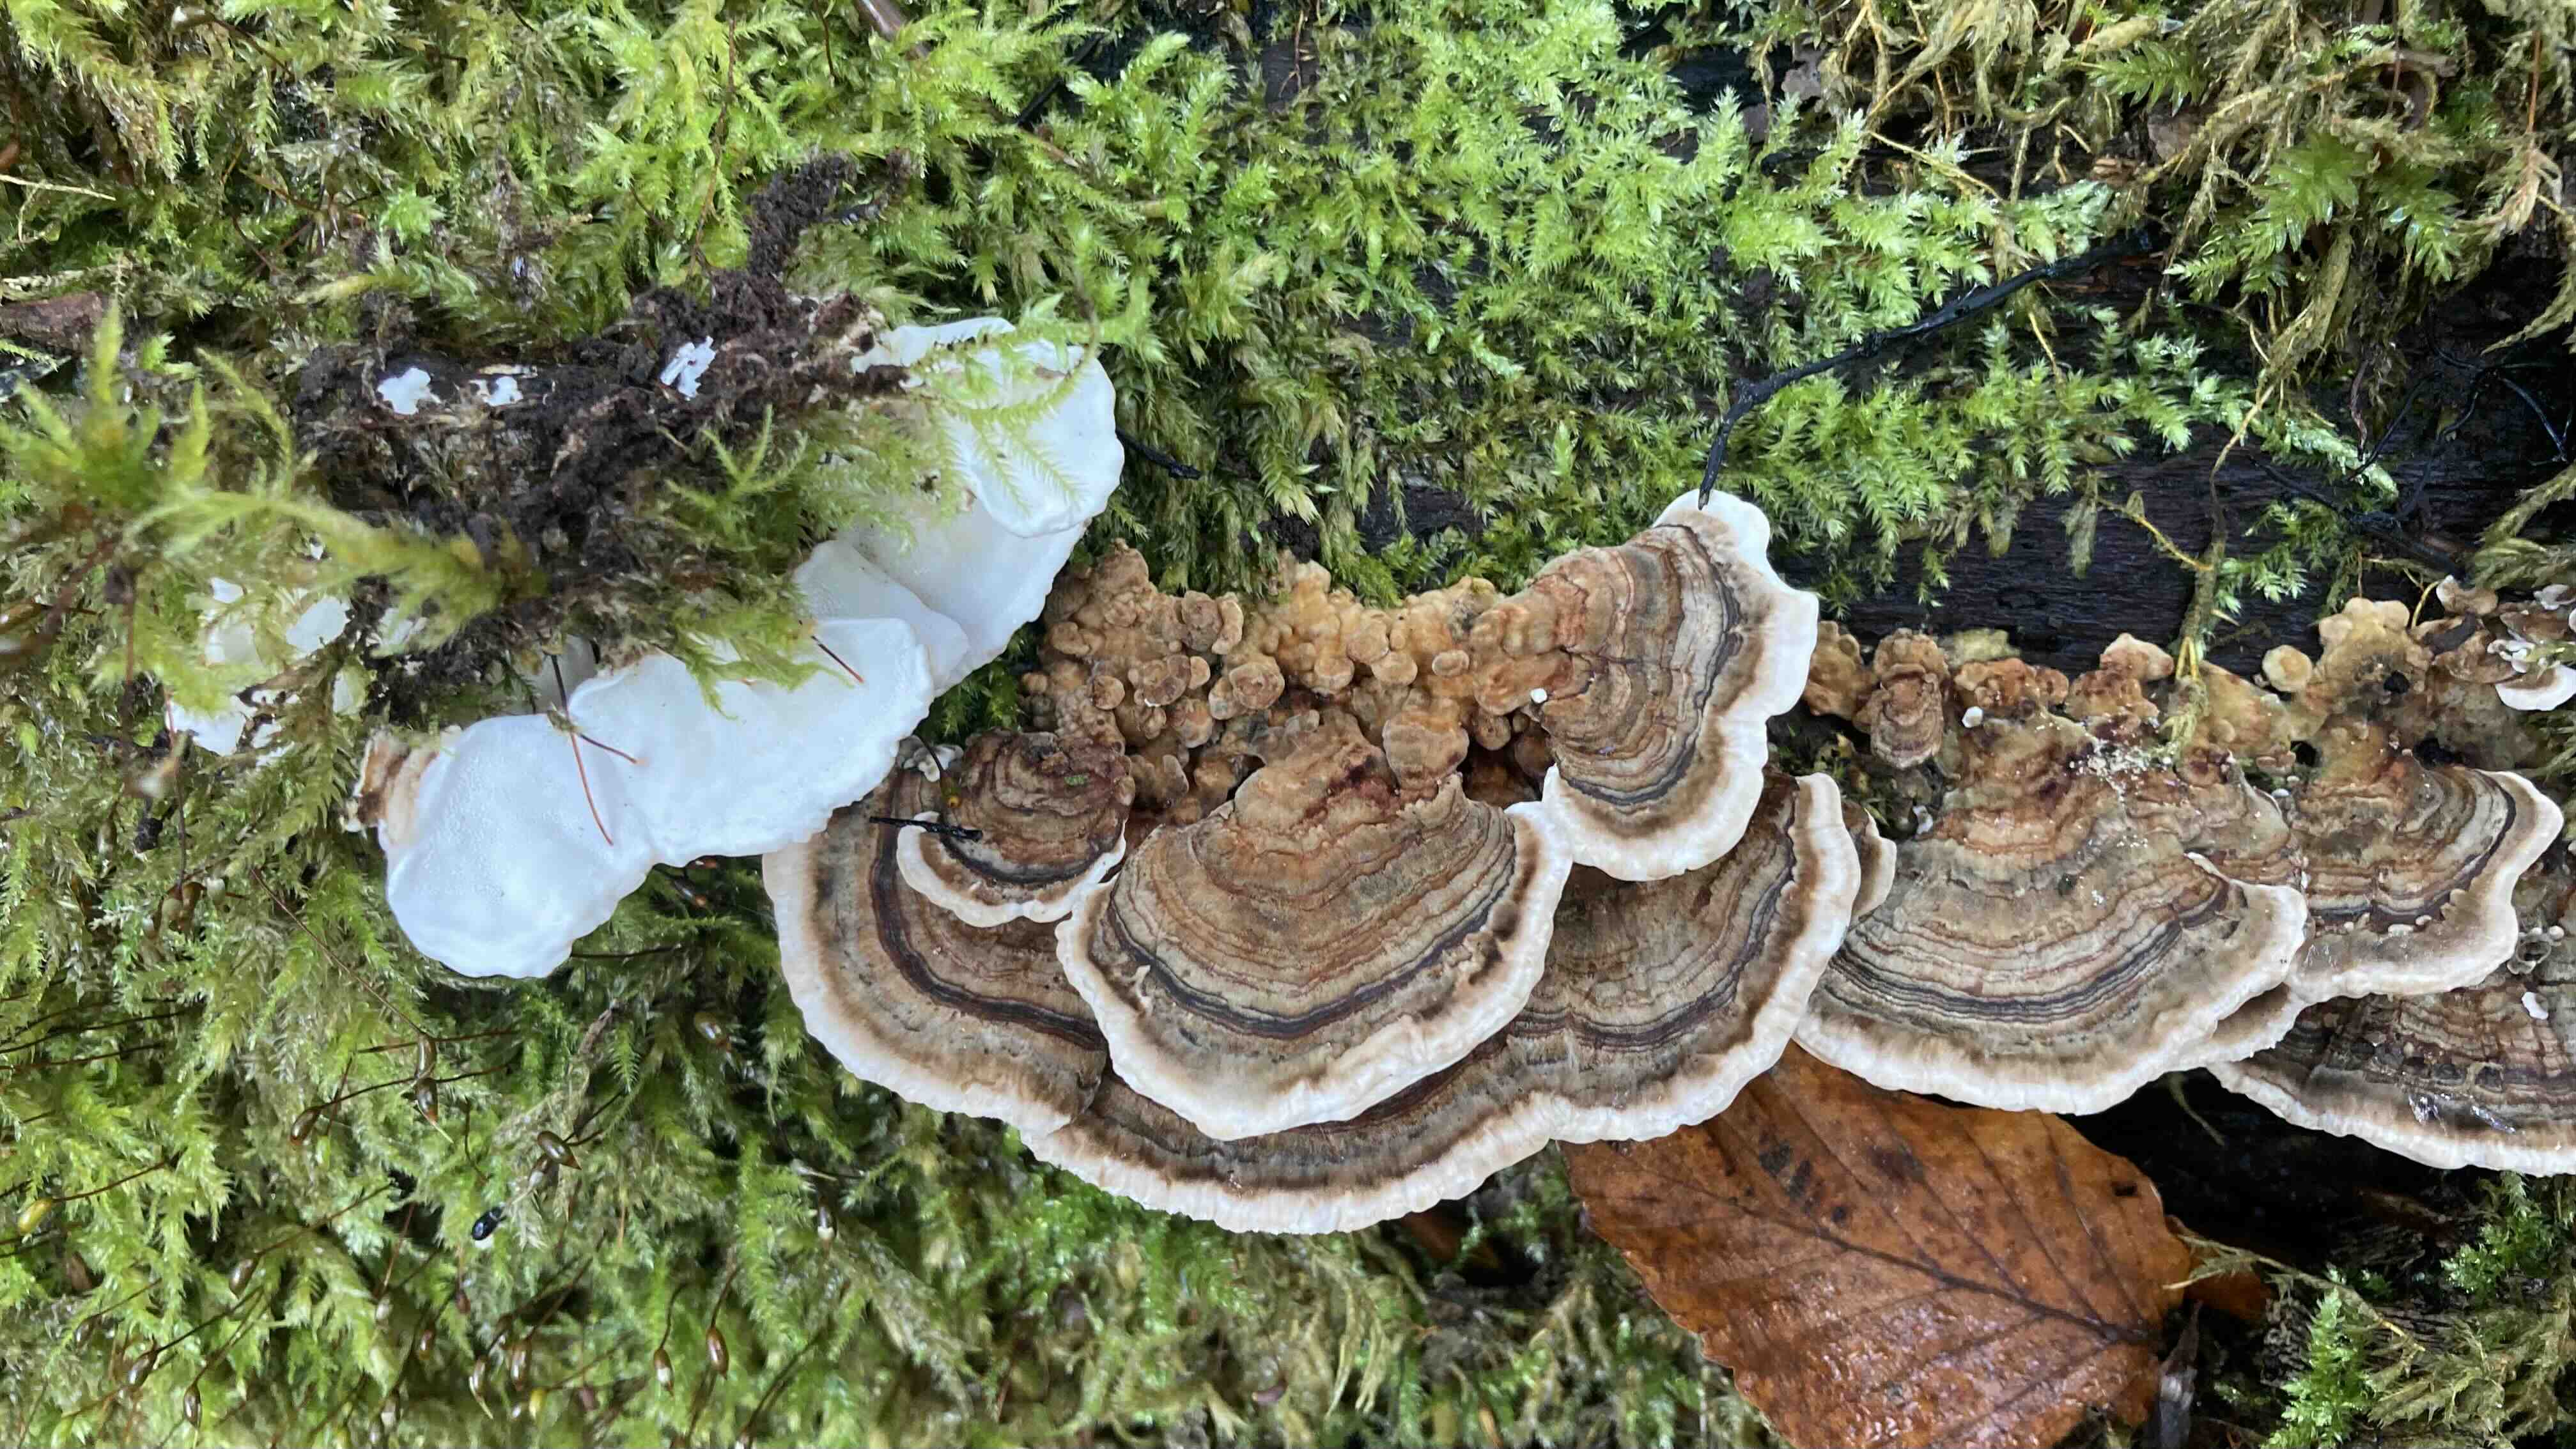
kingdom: Fungi
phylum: Basidiomycota
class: Agaricomycetes
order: Polyporales
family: Polyporaceae
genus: Trametes
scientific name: Trametes versicolor
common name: broget læderporesvamp
